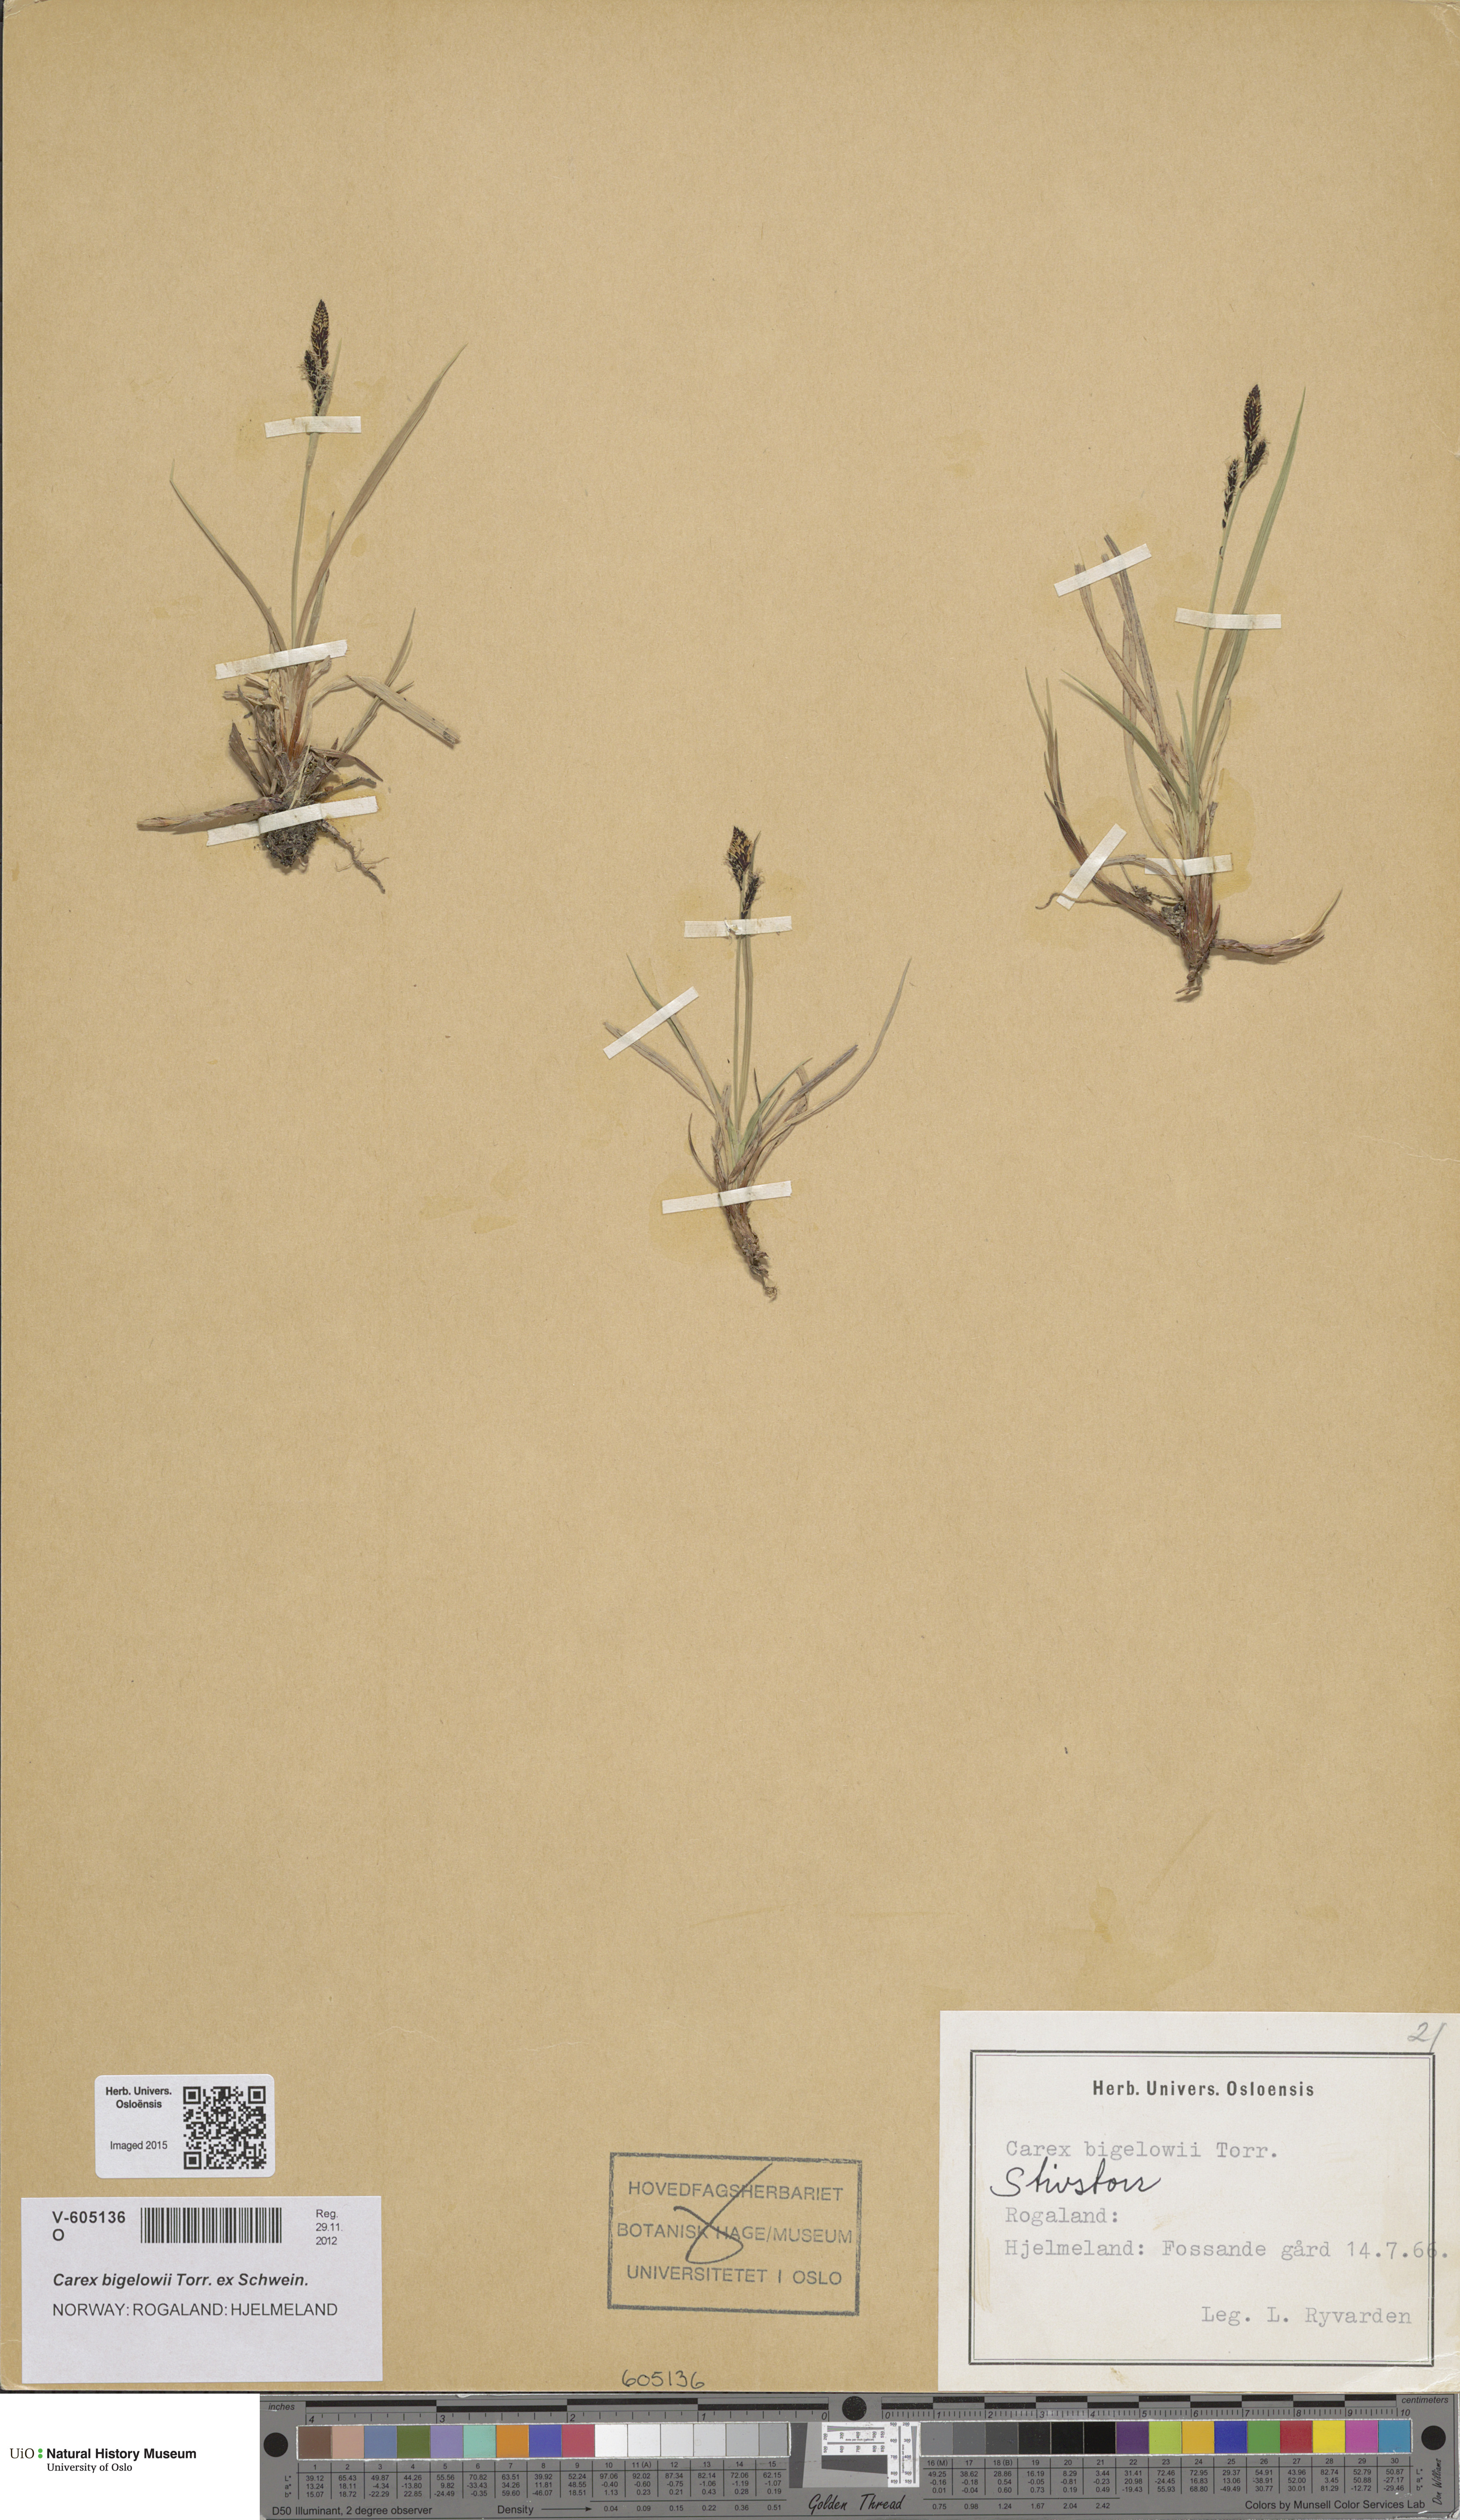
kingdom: Plantae
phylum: Tracheophyta
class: Liliopsida
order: Poales
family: Cyperaceae
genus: Carex
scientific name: Carex bigelowii
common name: Stiff sedge
